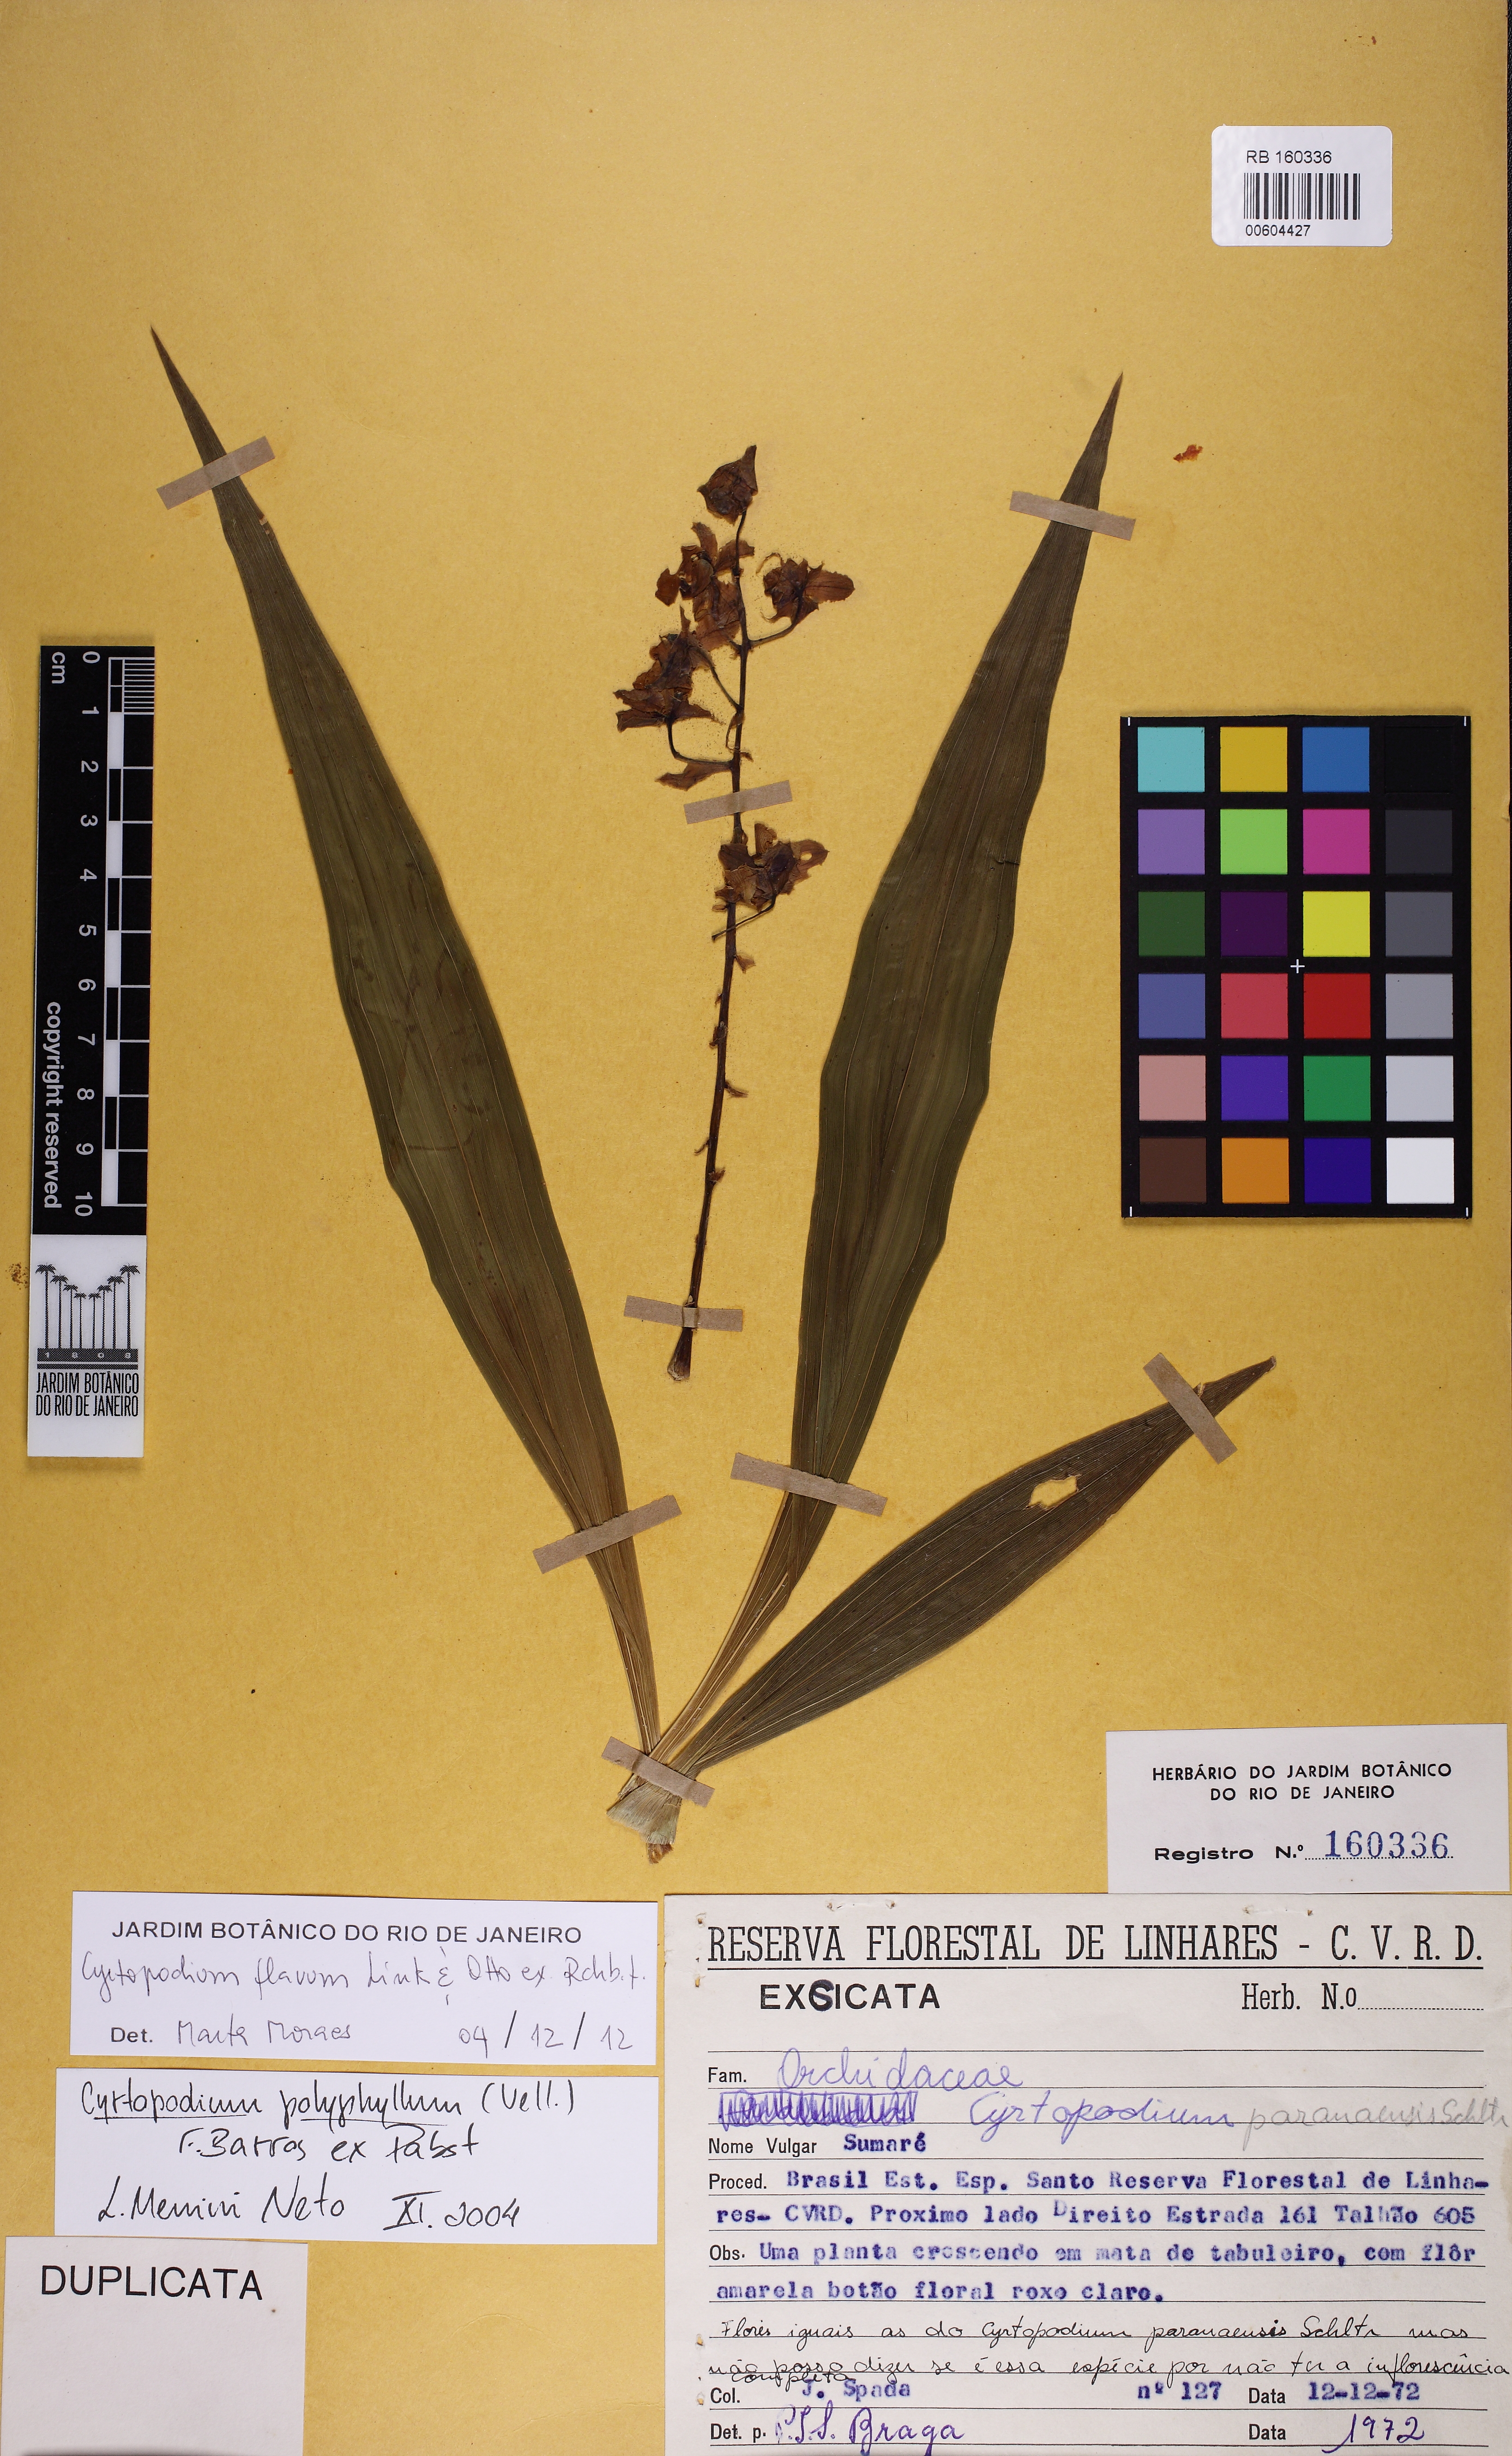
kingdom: Plantae
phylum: Tracheophyta
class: Liliopsida
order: Asparagales
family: Orchidaceae
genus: Cyrtopodium
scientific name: Cyrtopodium flavum
